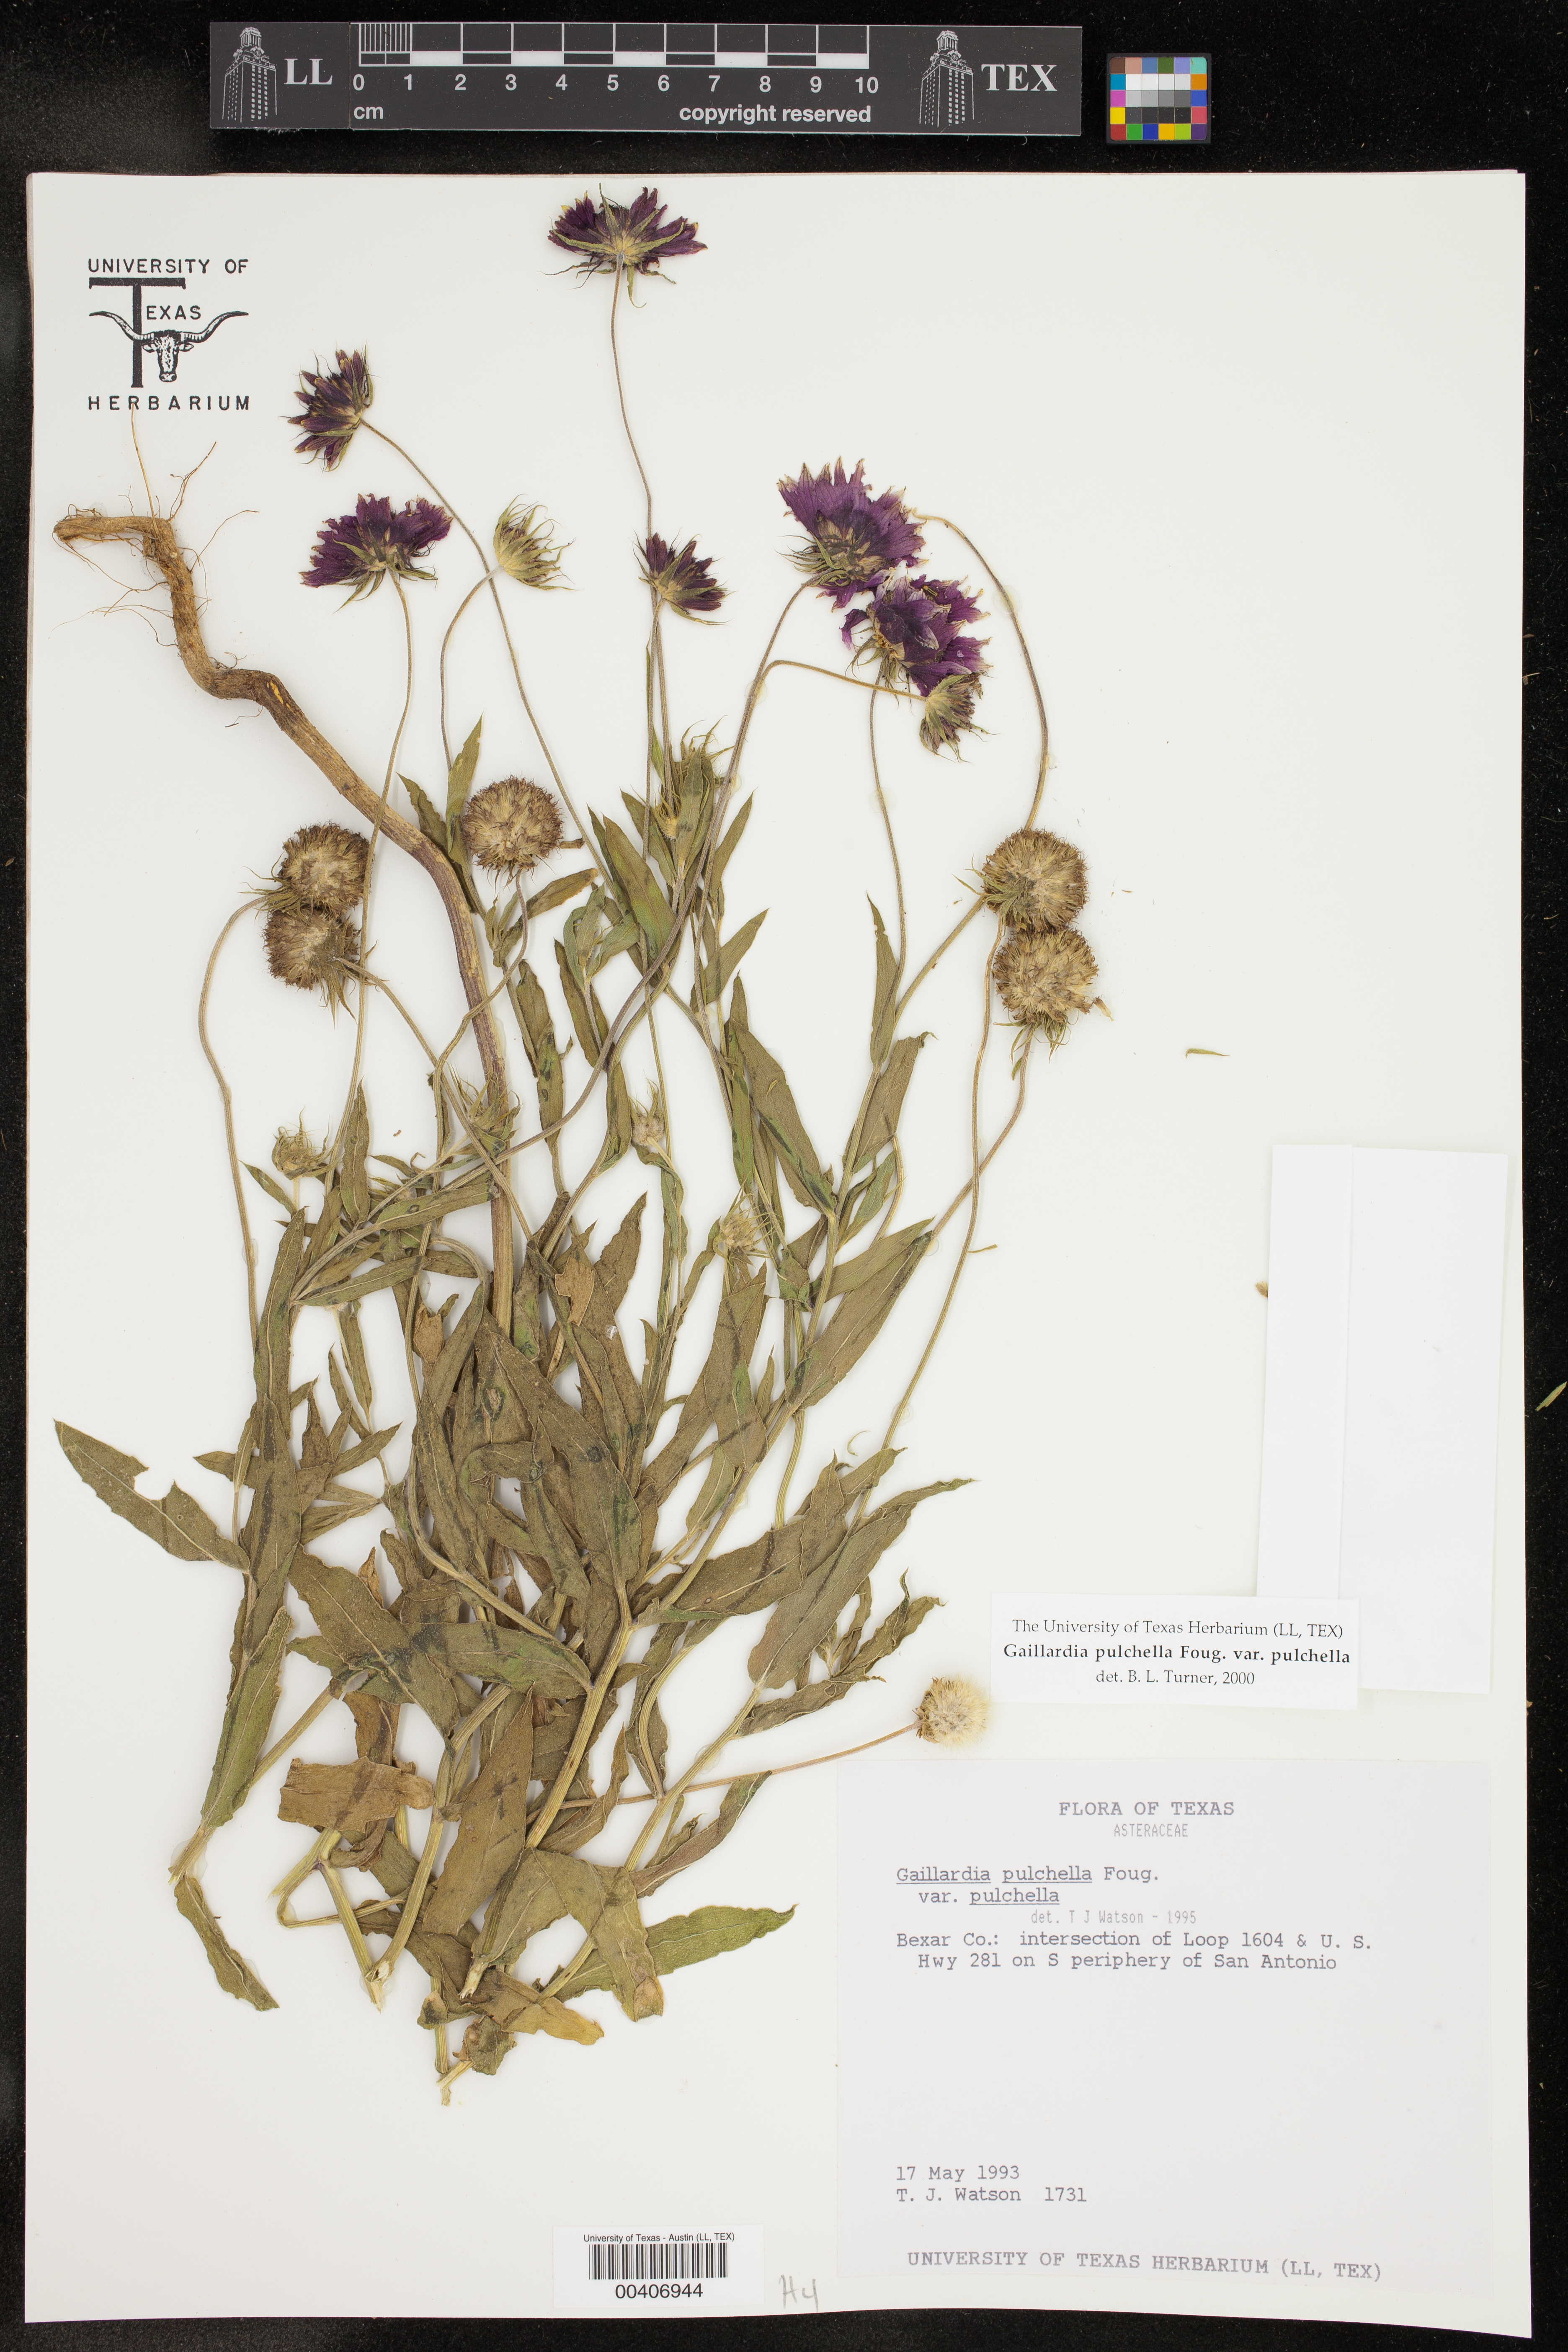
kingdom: Plantae
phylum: Tracheophyta
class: Magnoliopsida
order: Asterales
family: Asteraceae
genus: Gaillardia
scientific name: Gaillardia pulchella
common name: Firewheel
